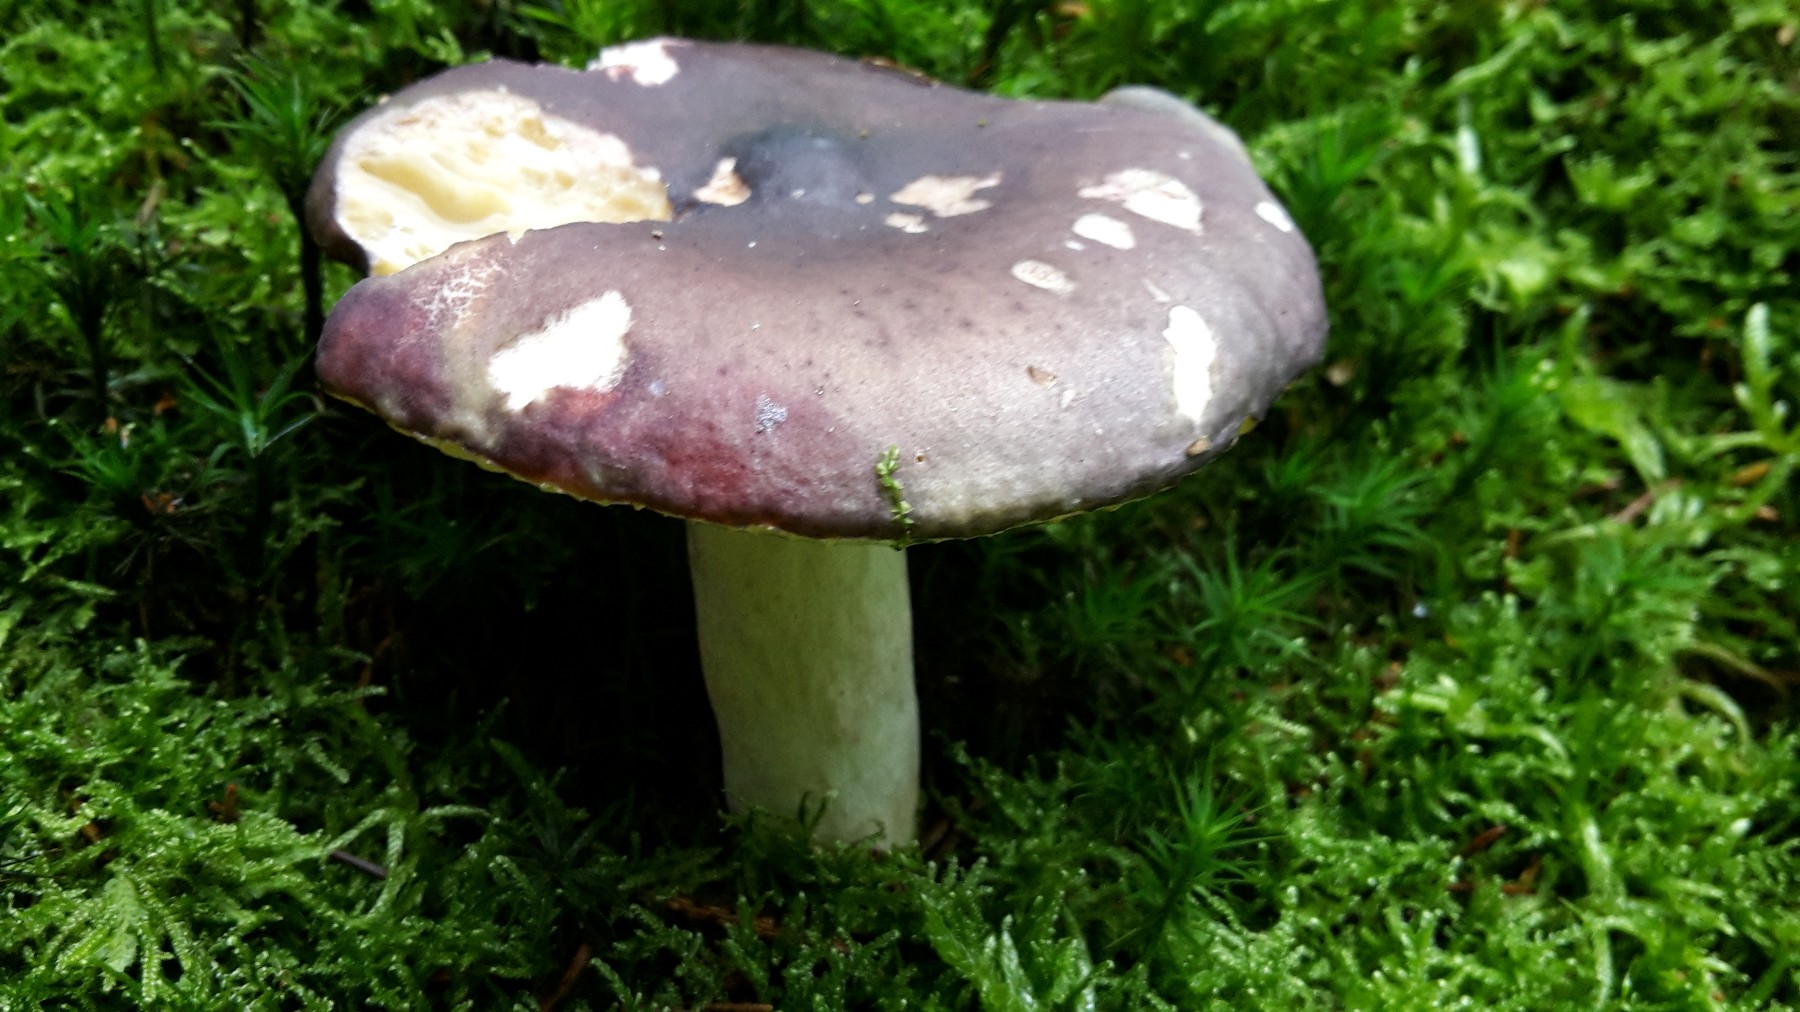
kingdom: Fungi
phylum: Basidiomycota
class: Agaricomycetes
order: Russulales
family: Russulaceae
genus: Russula
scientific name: Russula
